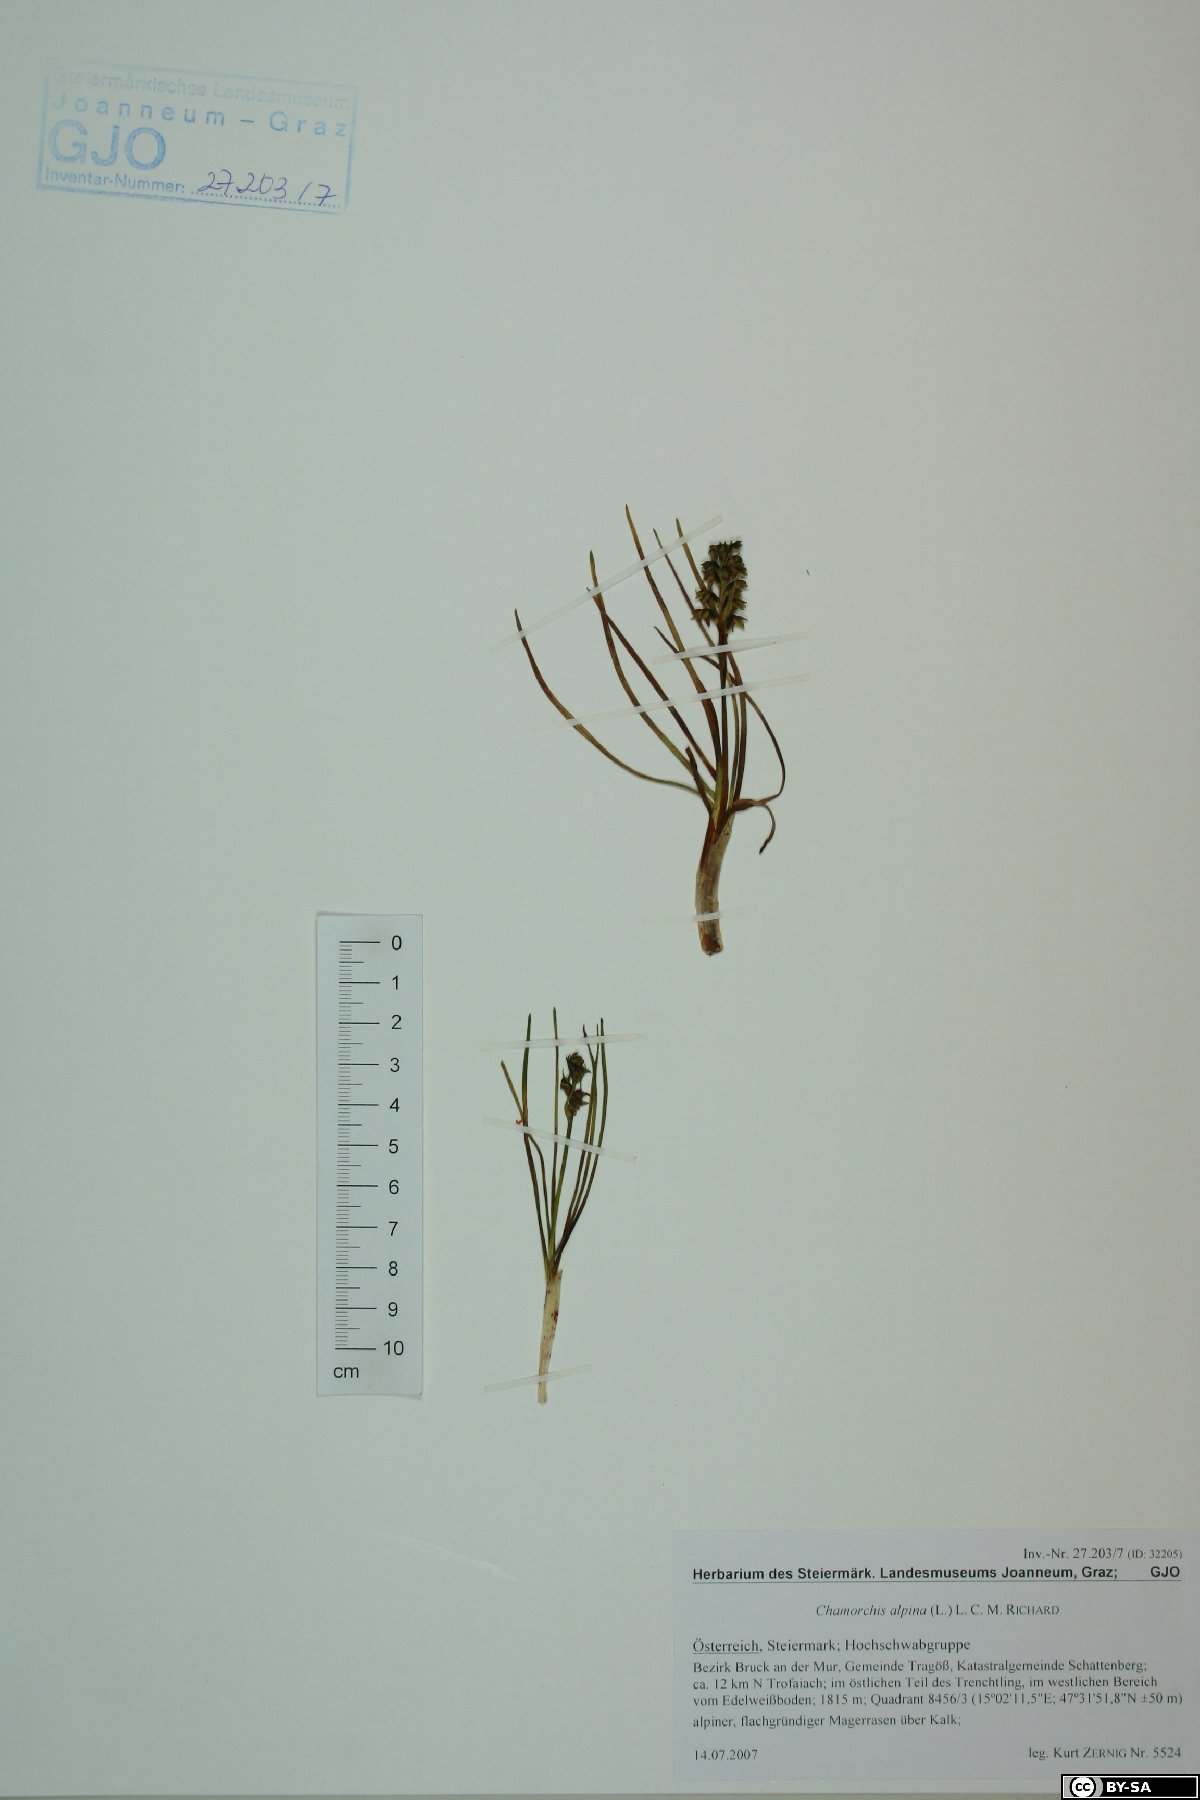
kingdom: Plantae
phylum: Tracheophyta
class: Liliopsida
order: Asparagales
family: Orchidaceae
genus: Chamorchis
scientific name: Chamorchis alpina
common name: Alpine chamorchis
